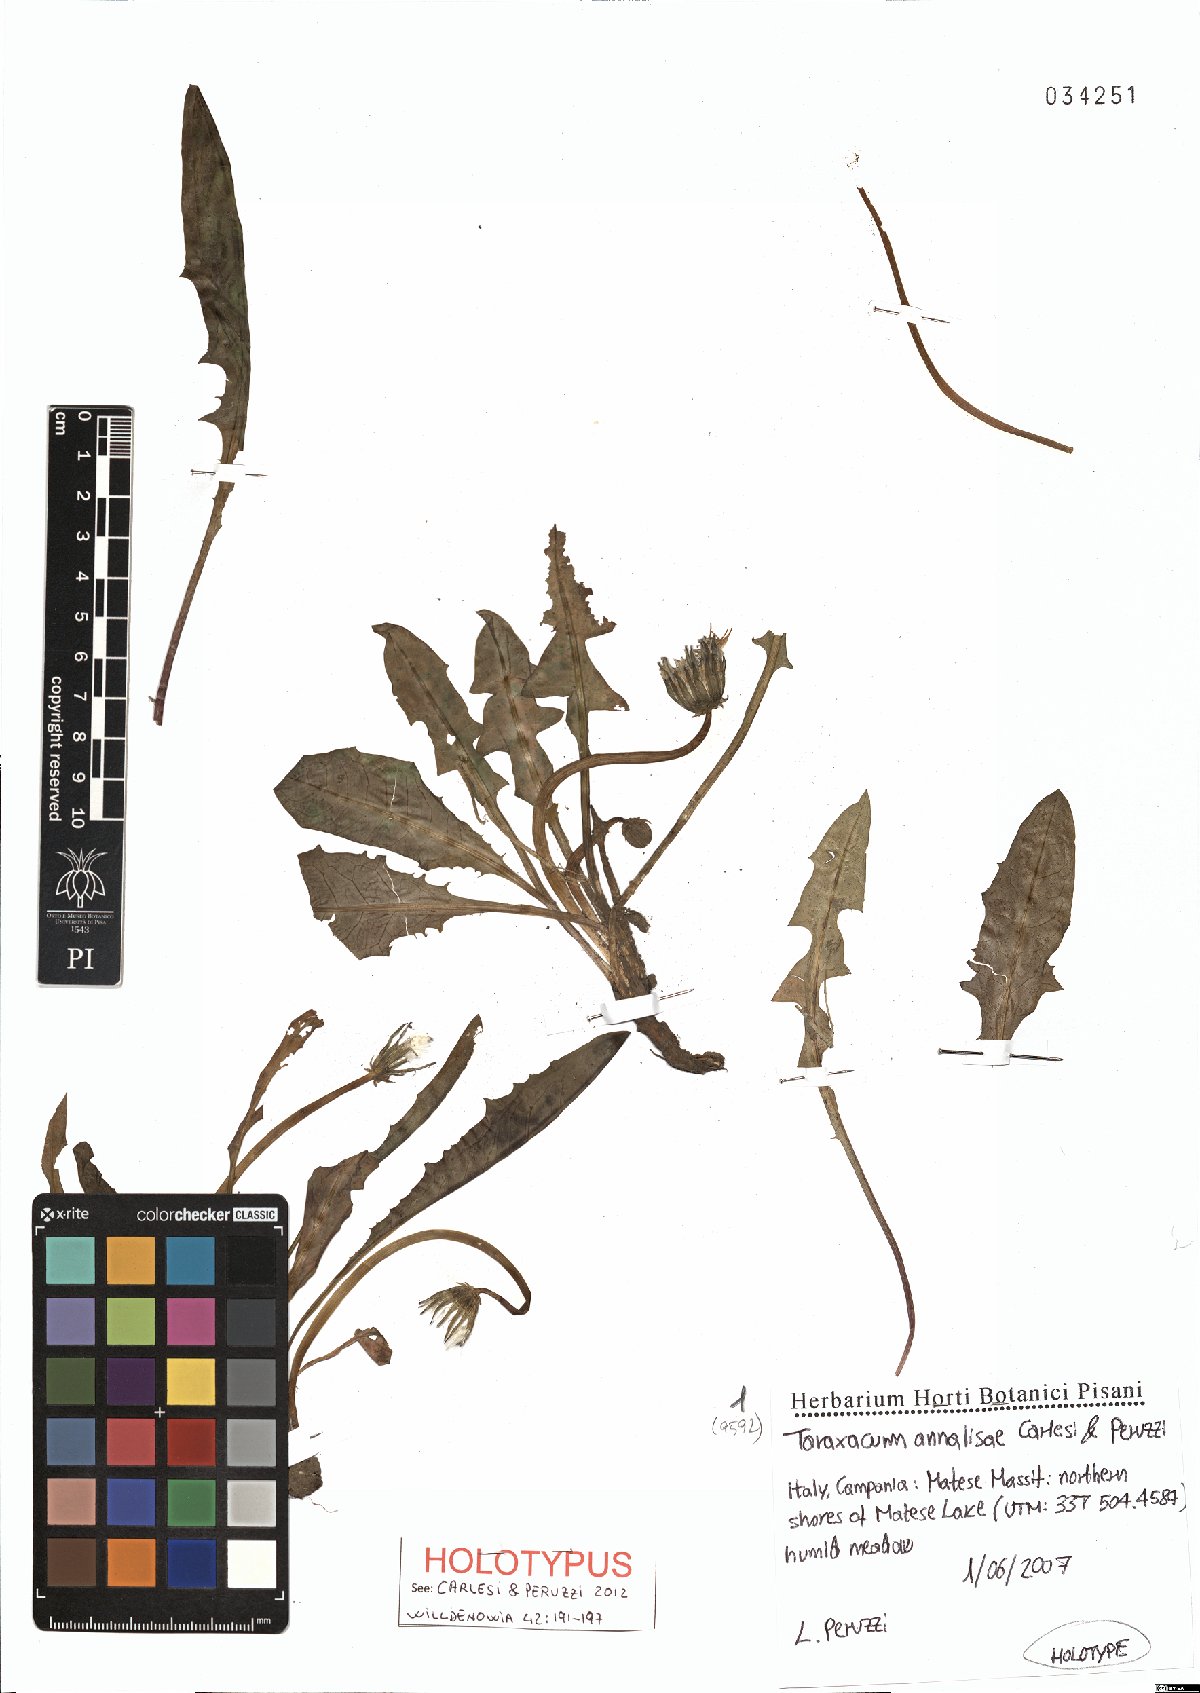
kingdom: Plantae
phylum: Tracheophyta
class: Magnoliopsida
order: Asterales
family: Asteraceae
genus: Taraxacum
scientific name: Taraxacum annalisae
